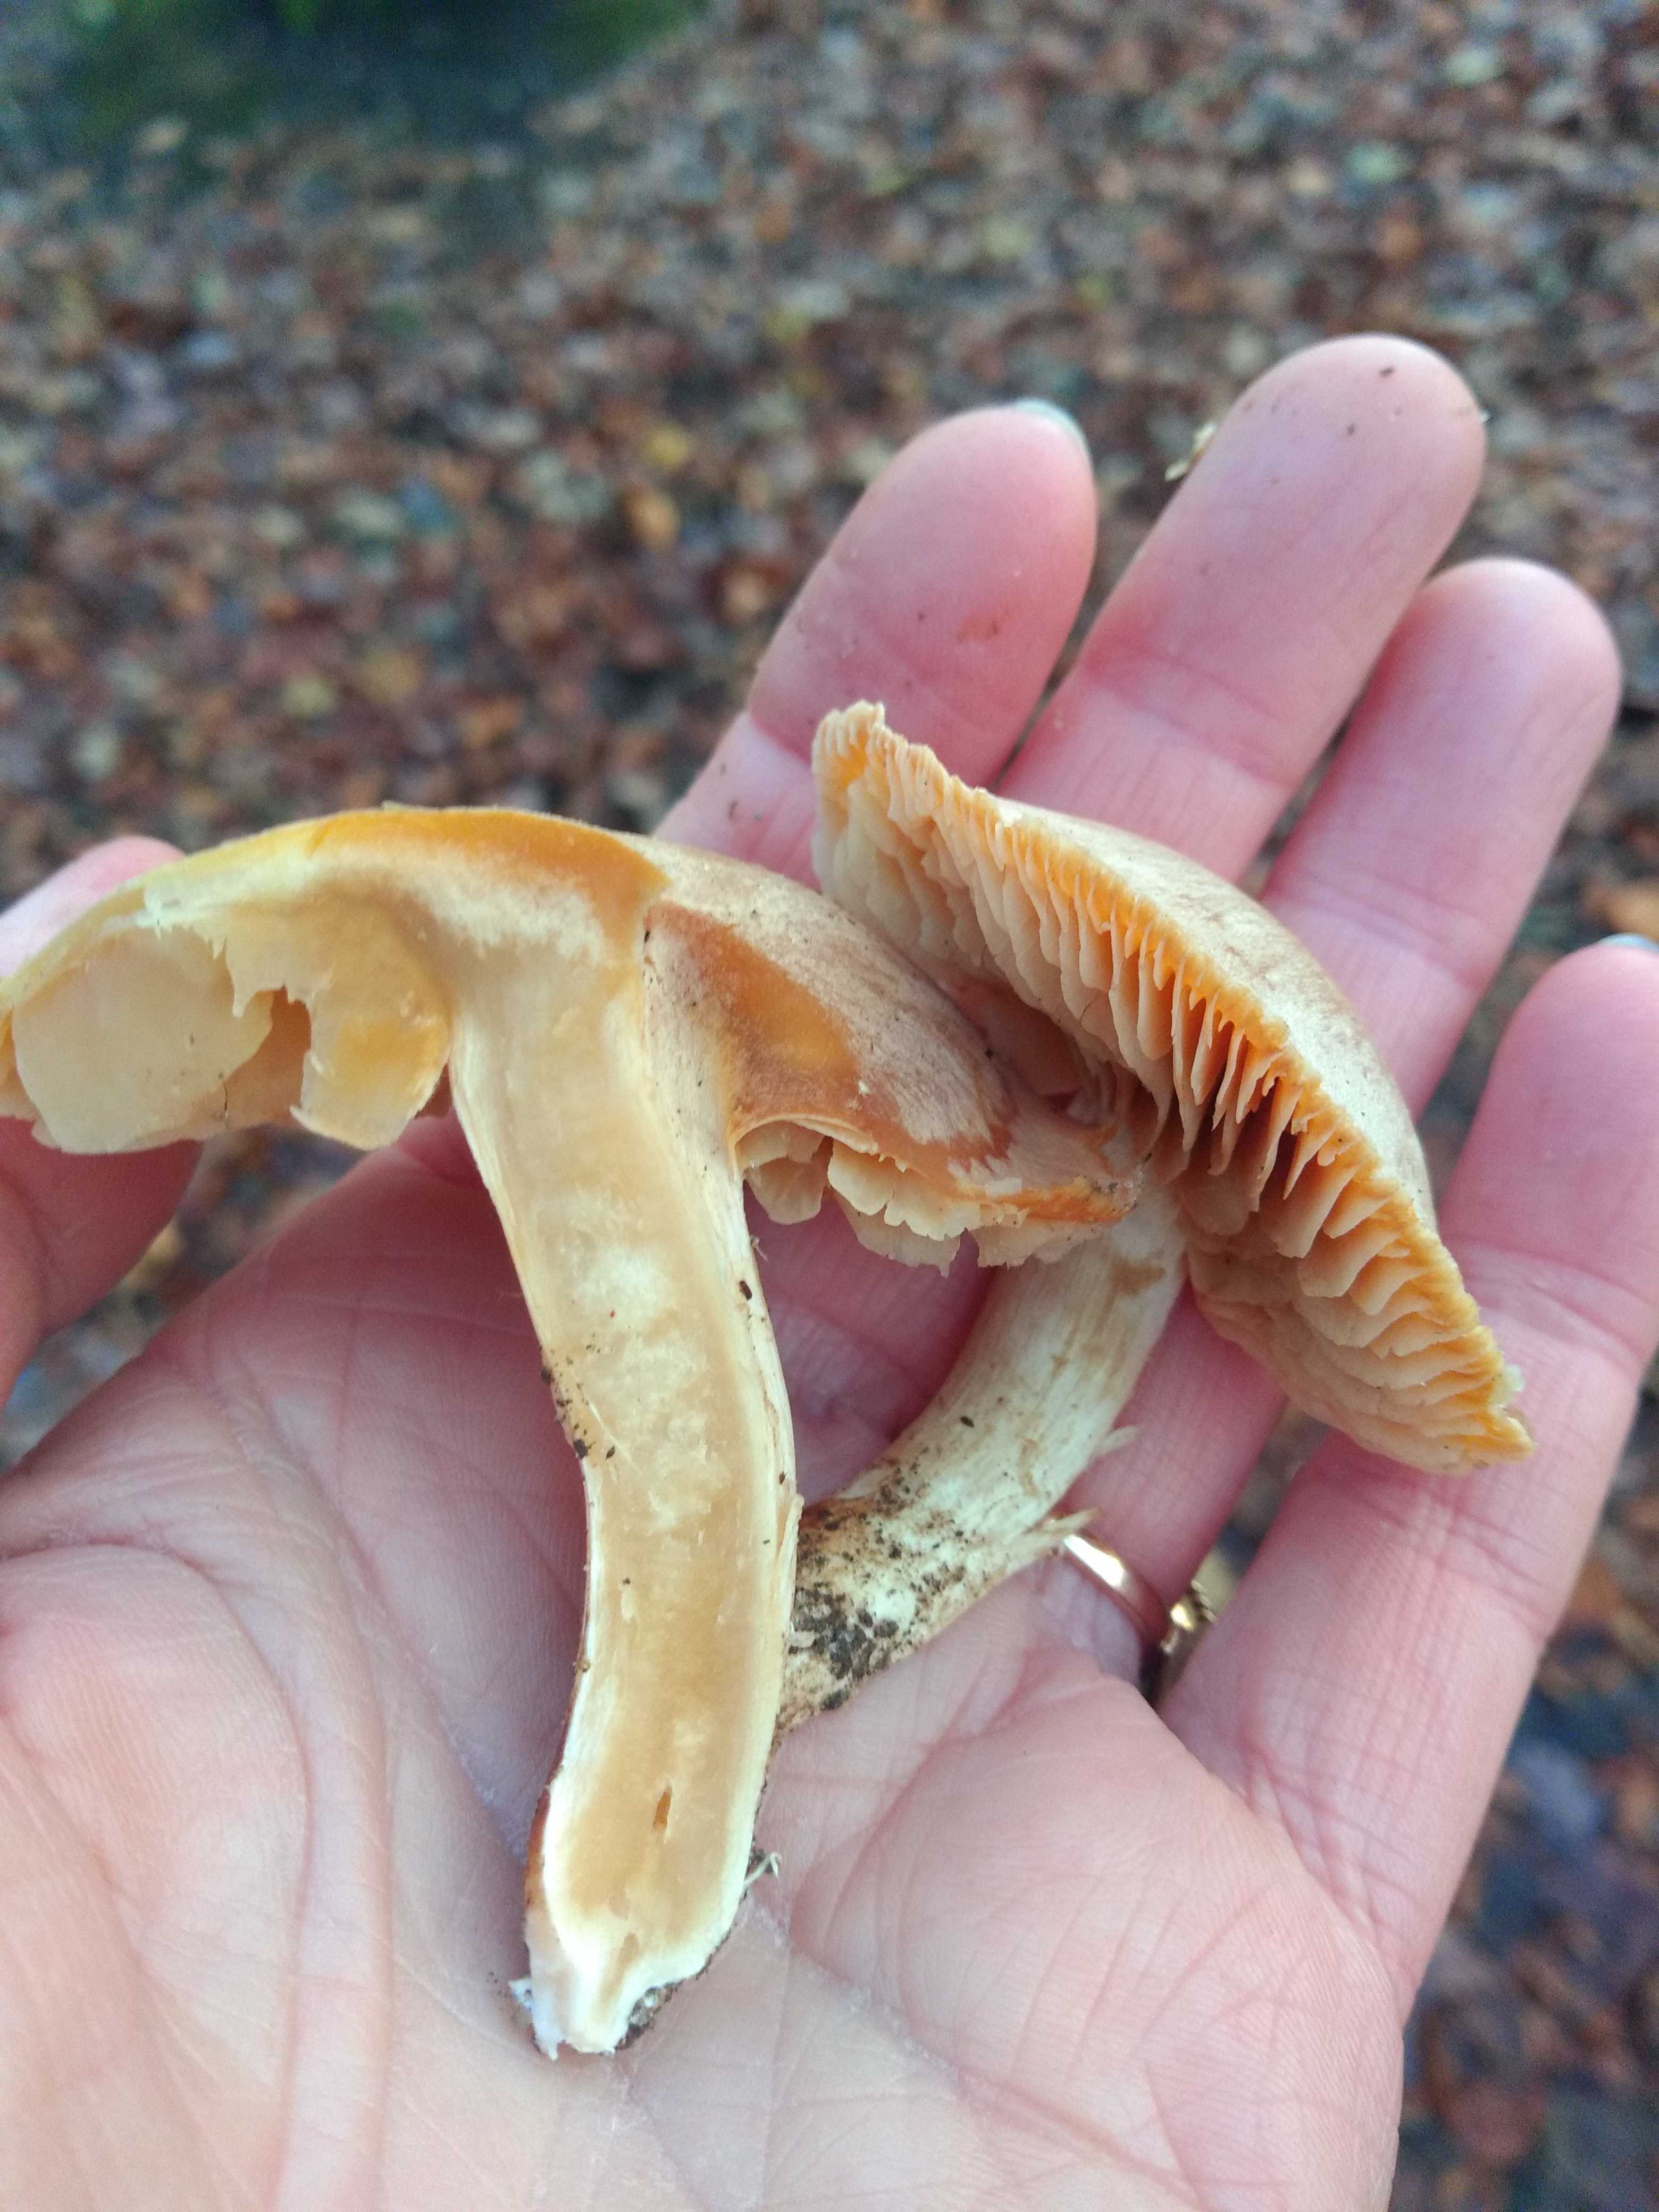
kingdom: Fungi
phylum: Basidiomycota
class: Agaricomycetes
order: Agaricales
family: Cortinariaceae
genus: Cortinarius
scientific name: Cortinarius
